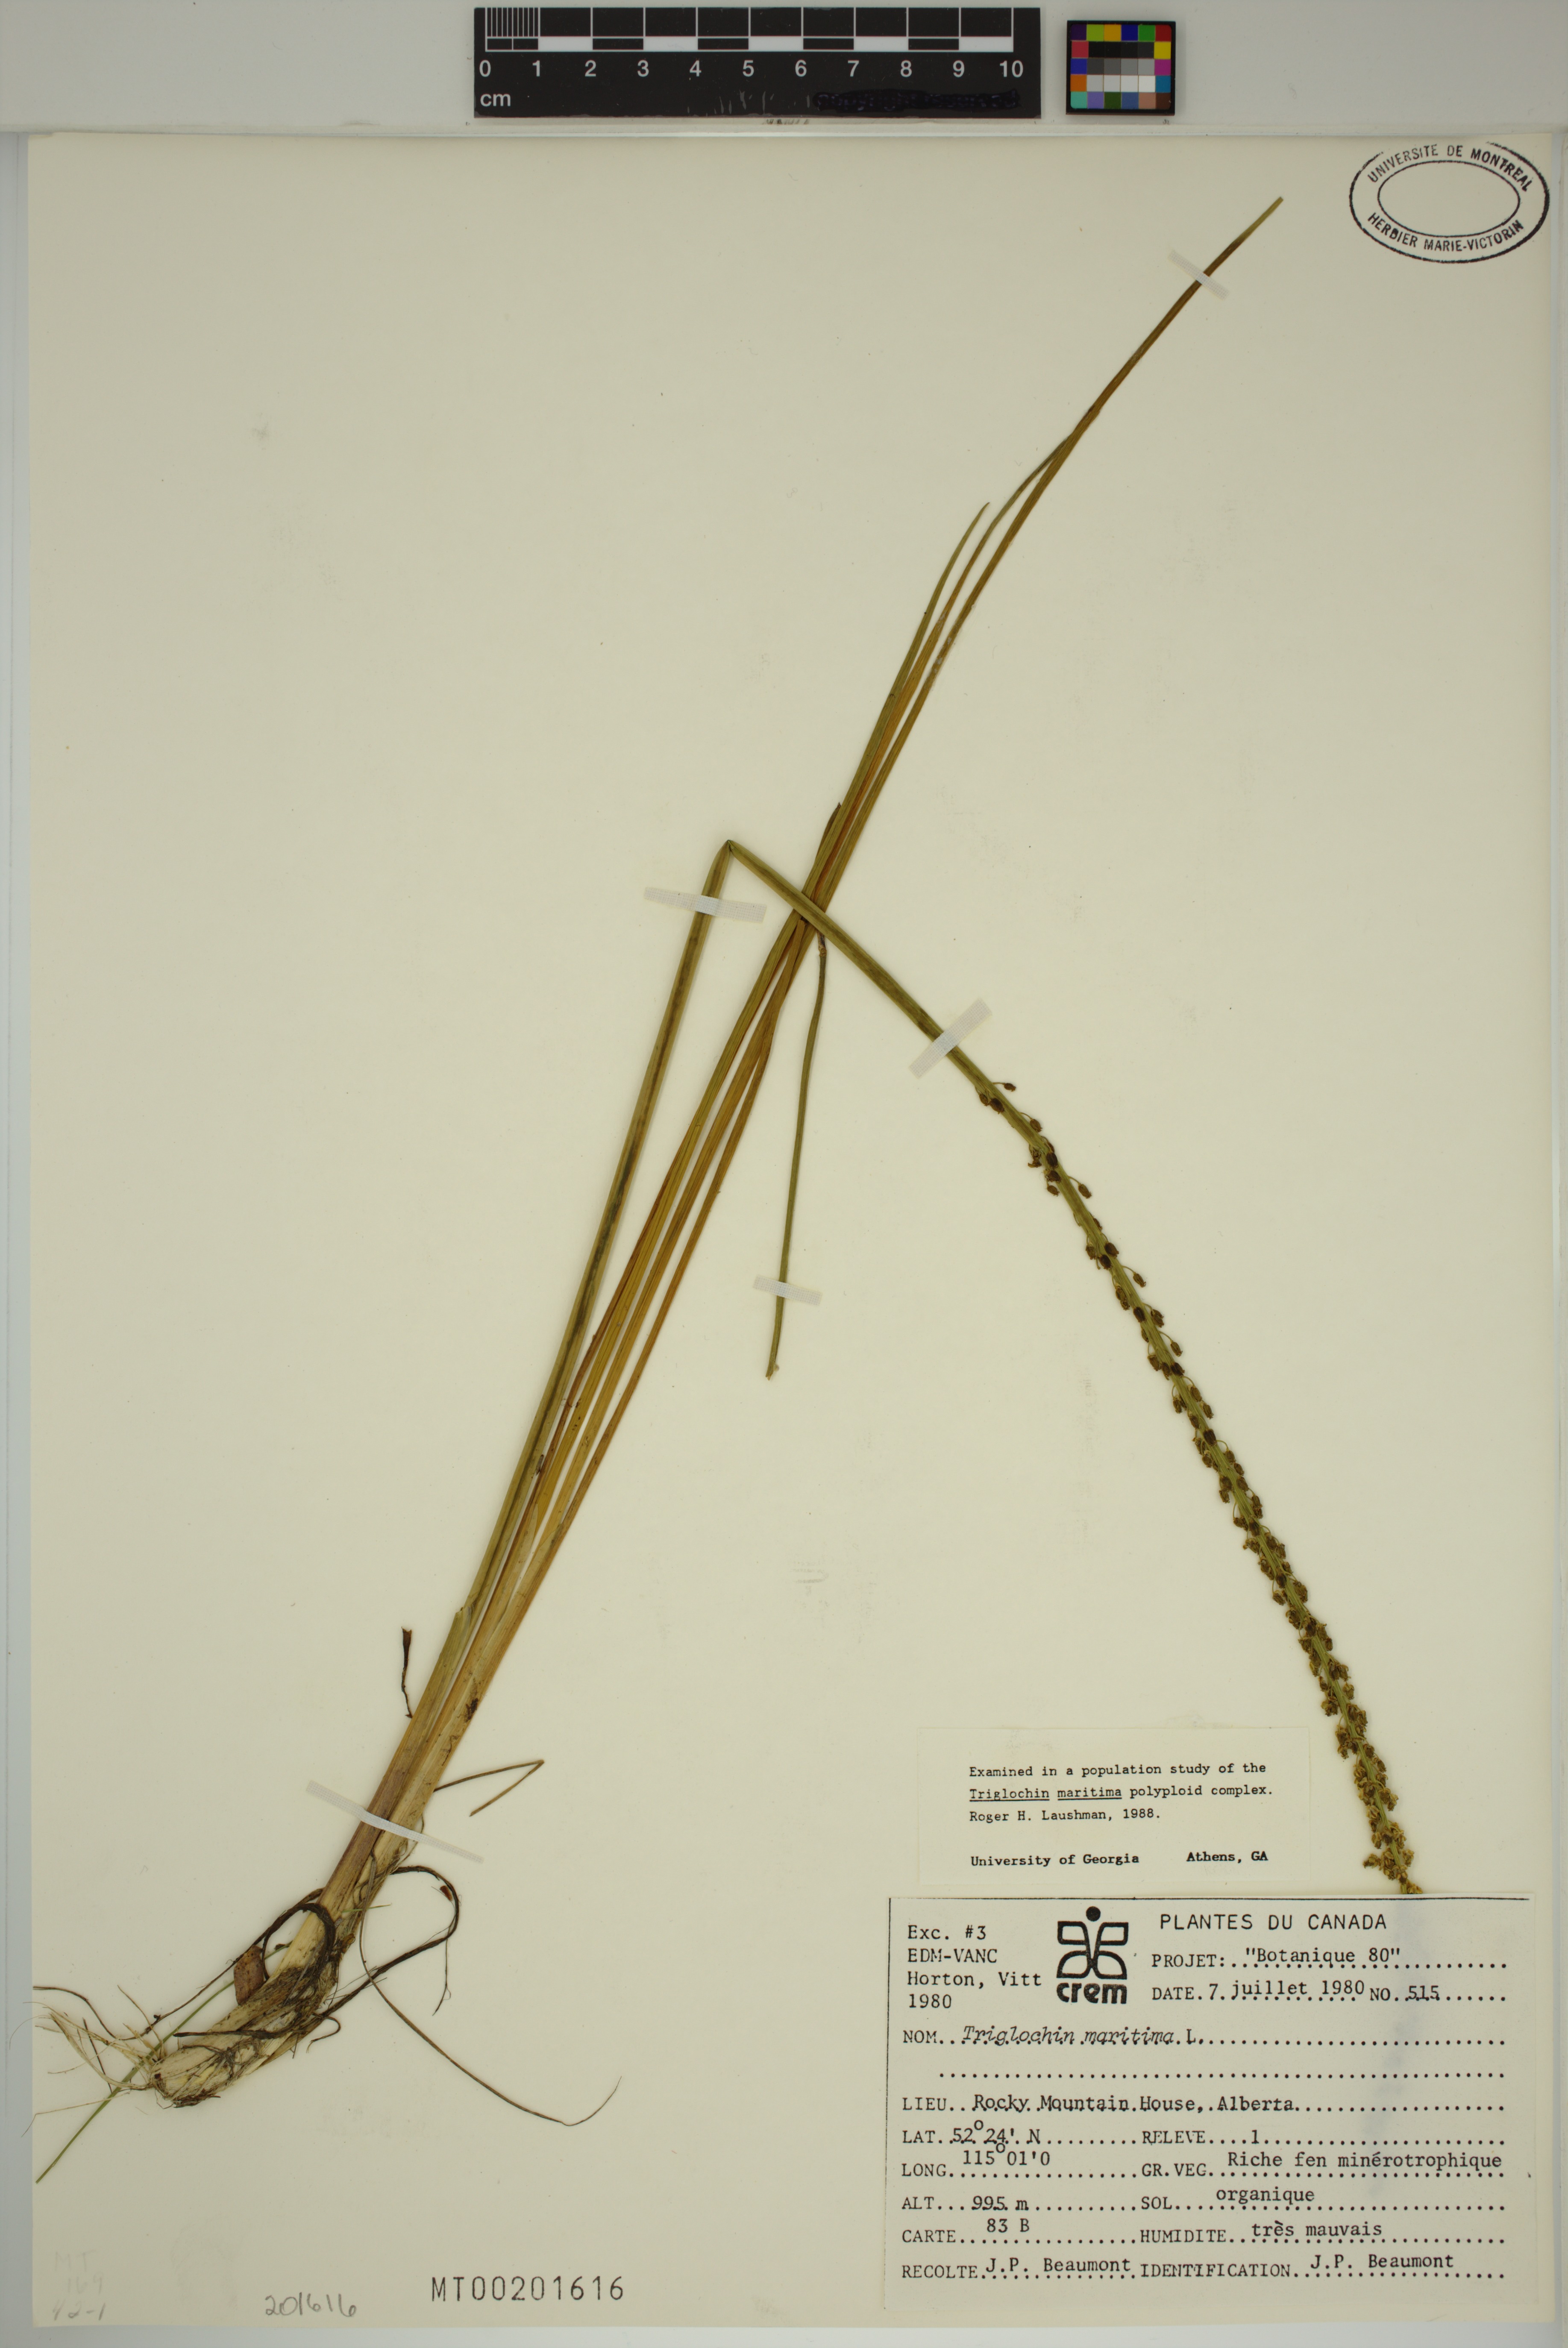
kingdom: Plantae
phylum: Tracheophyta
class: Liliopsida
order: Alismatales
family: Juncaginaceae
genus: Triglochin
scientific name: Triglochin maritima
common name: Sea arrowgrass
